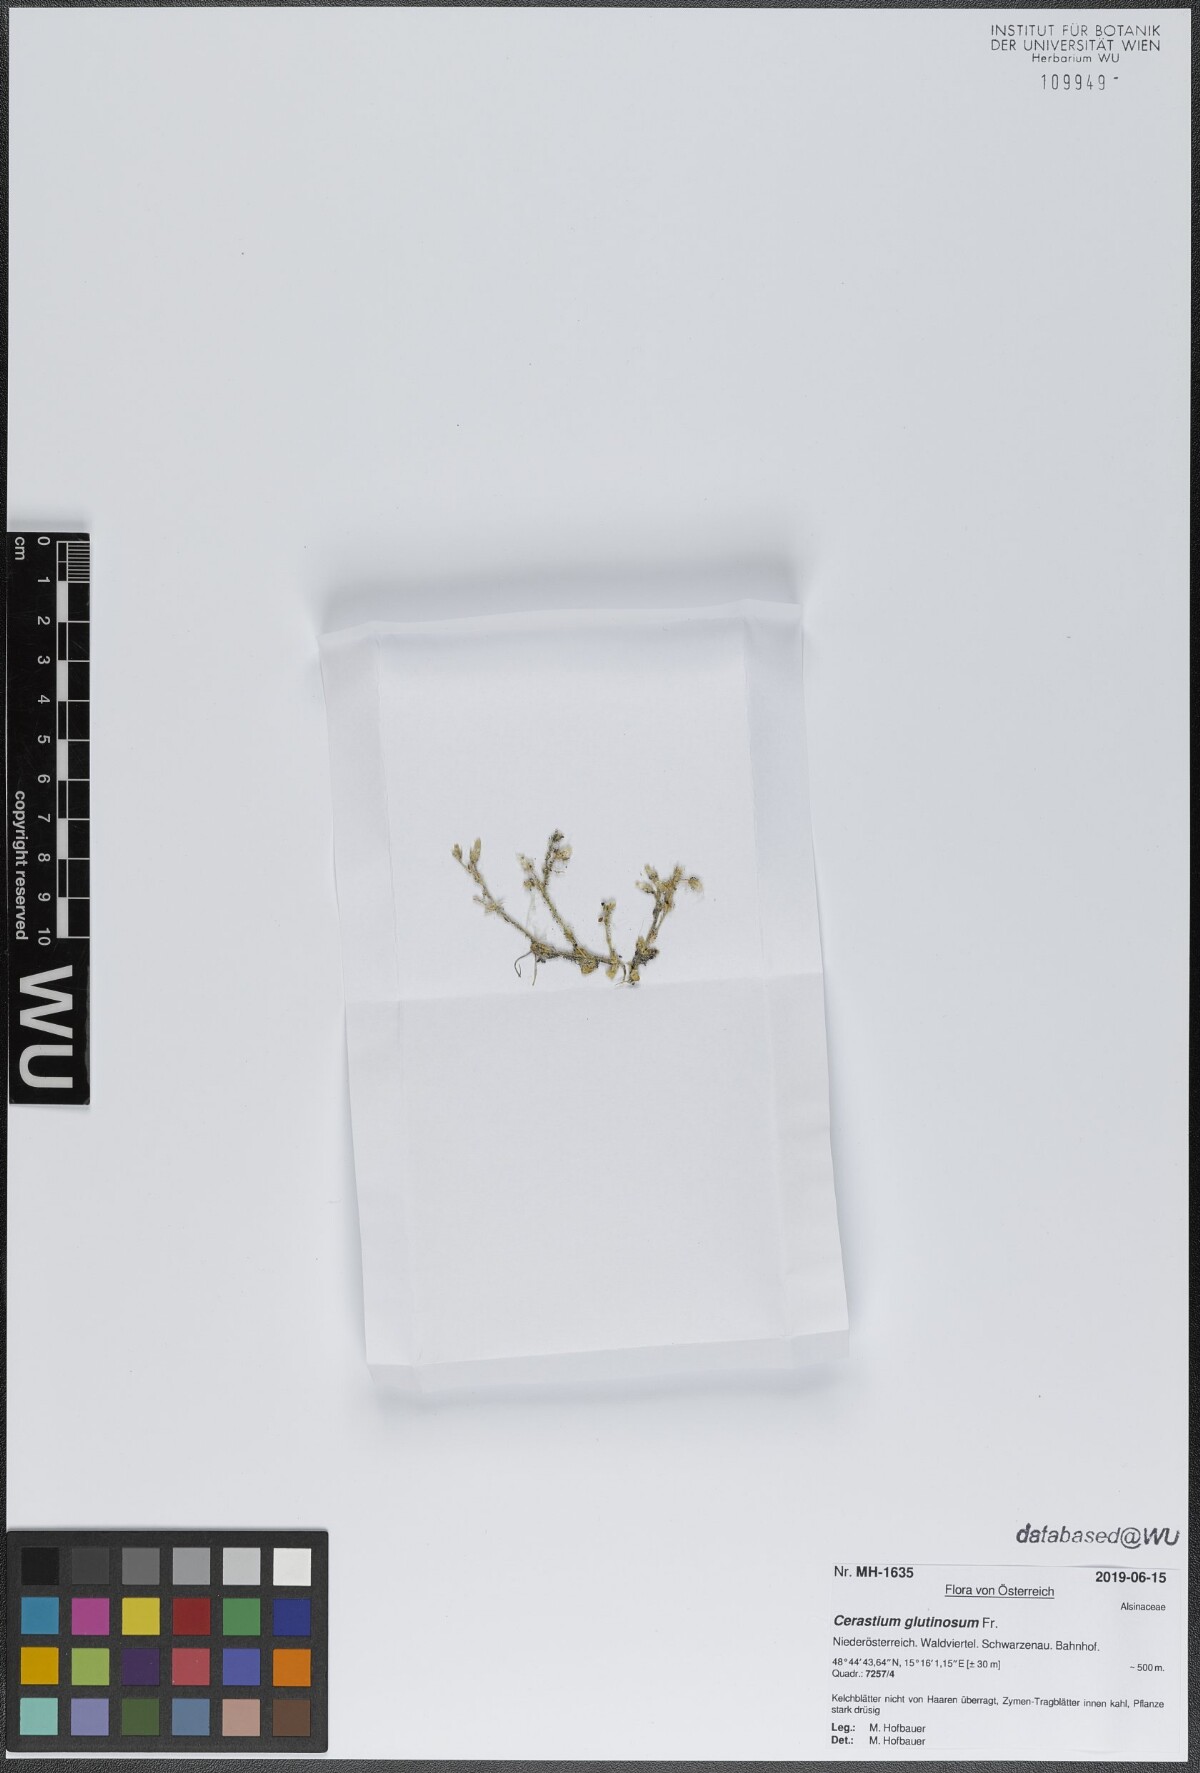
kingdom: Plantae
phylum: Tracheophyta
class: Magnoliopsida
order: Caryophyllales
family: Caryophyllaceae
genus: Cerastium
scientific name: Cerastium glutinosum
